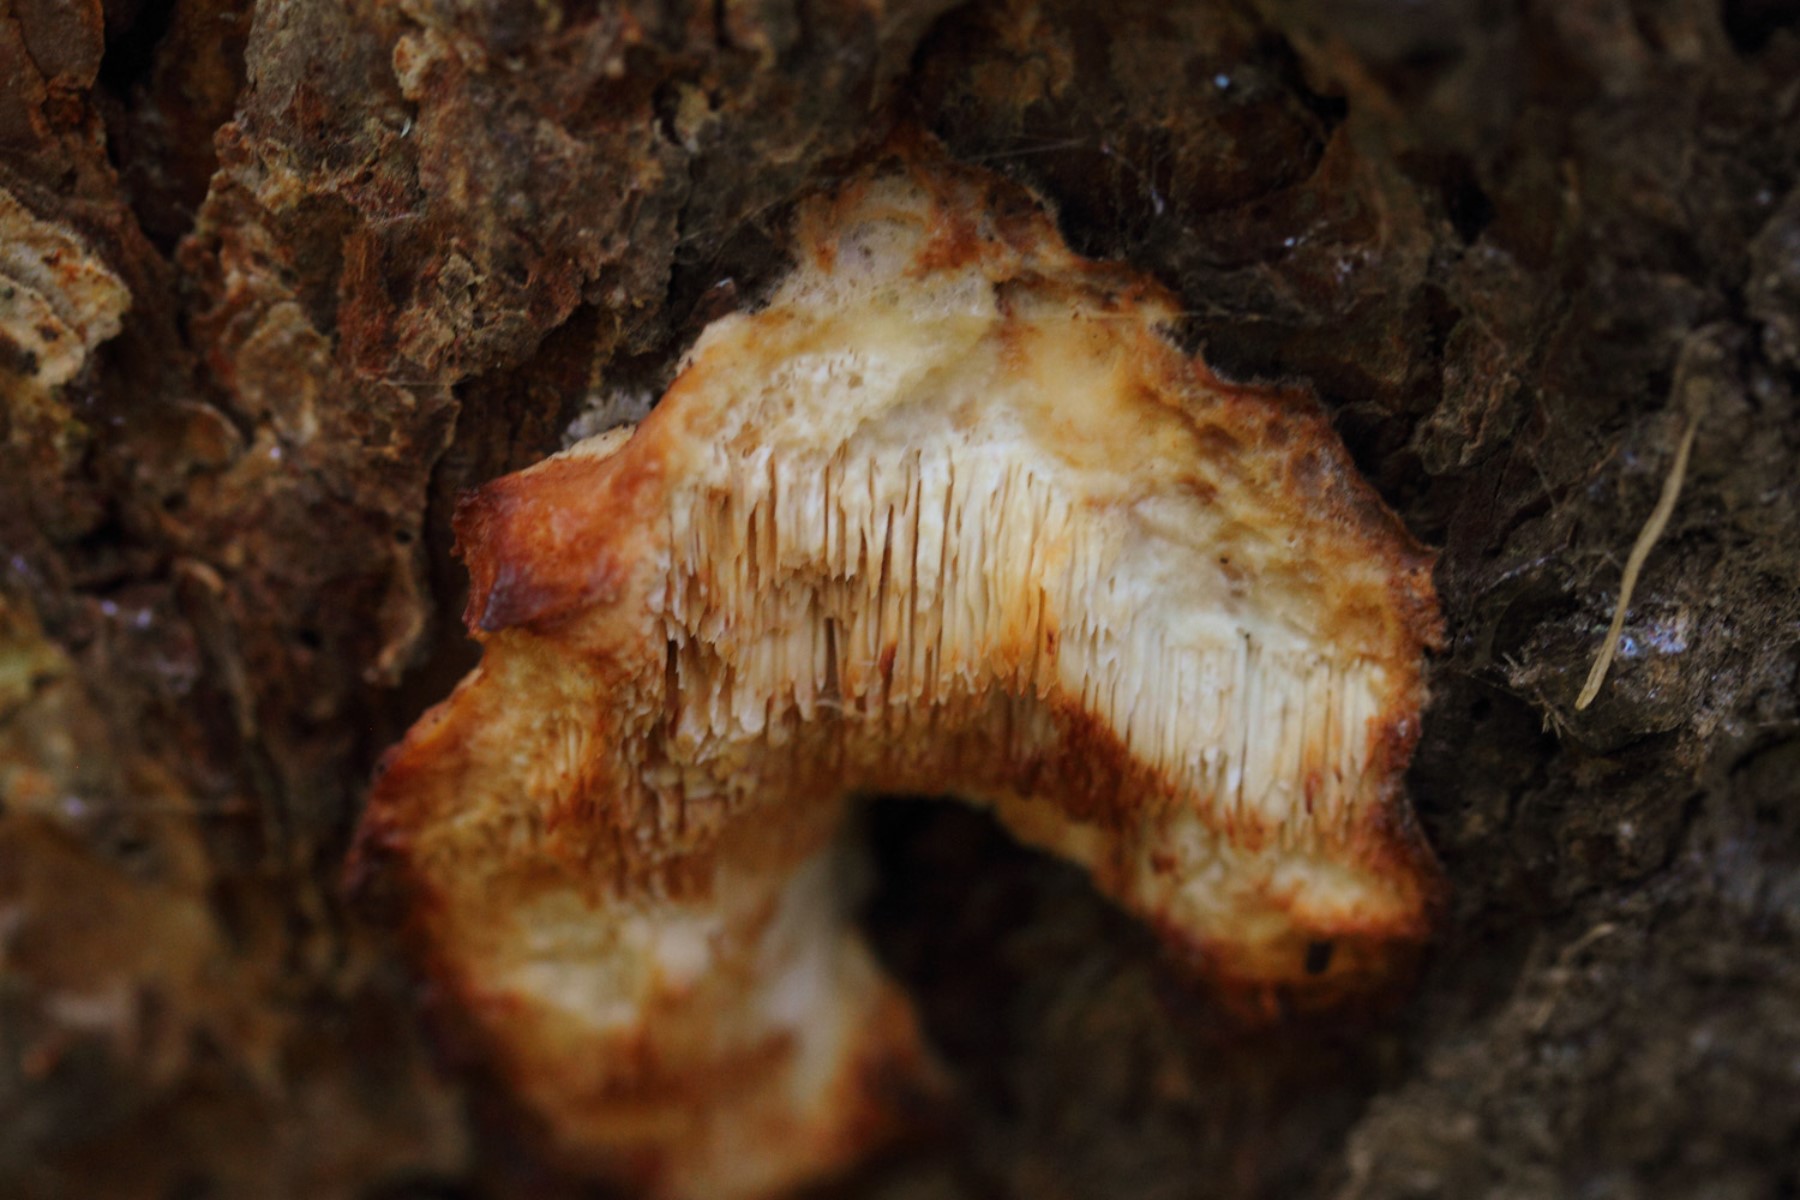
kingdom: Fungi
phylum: Basidiomycota
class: Agaricomycetes
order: Polyporales
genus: Fuscopostia
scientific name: Fuscopostia fragilis
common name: brunende kødporesvamp
